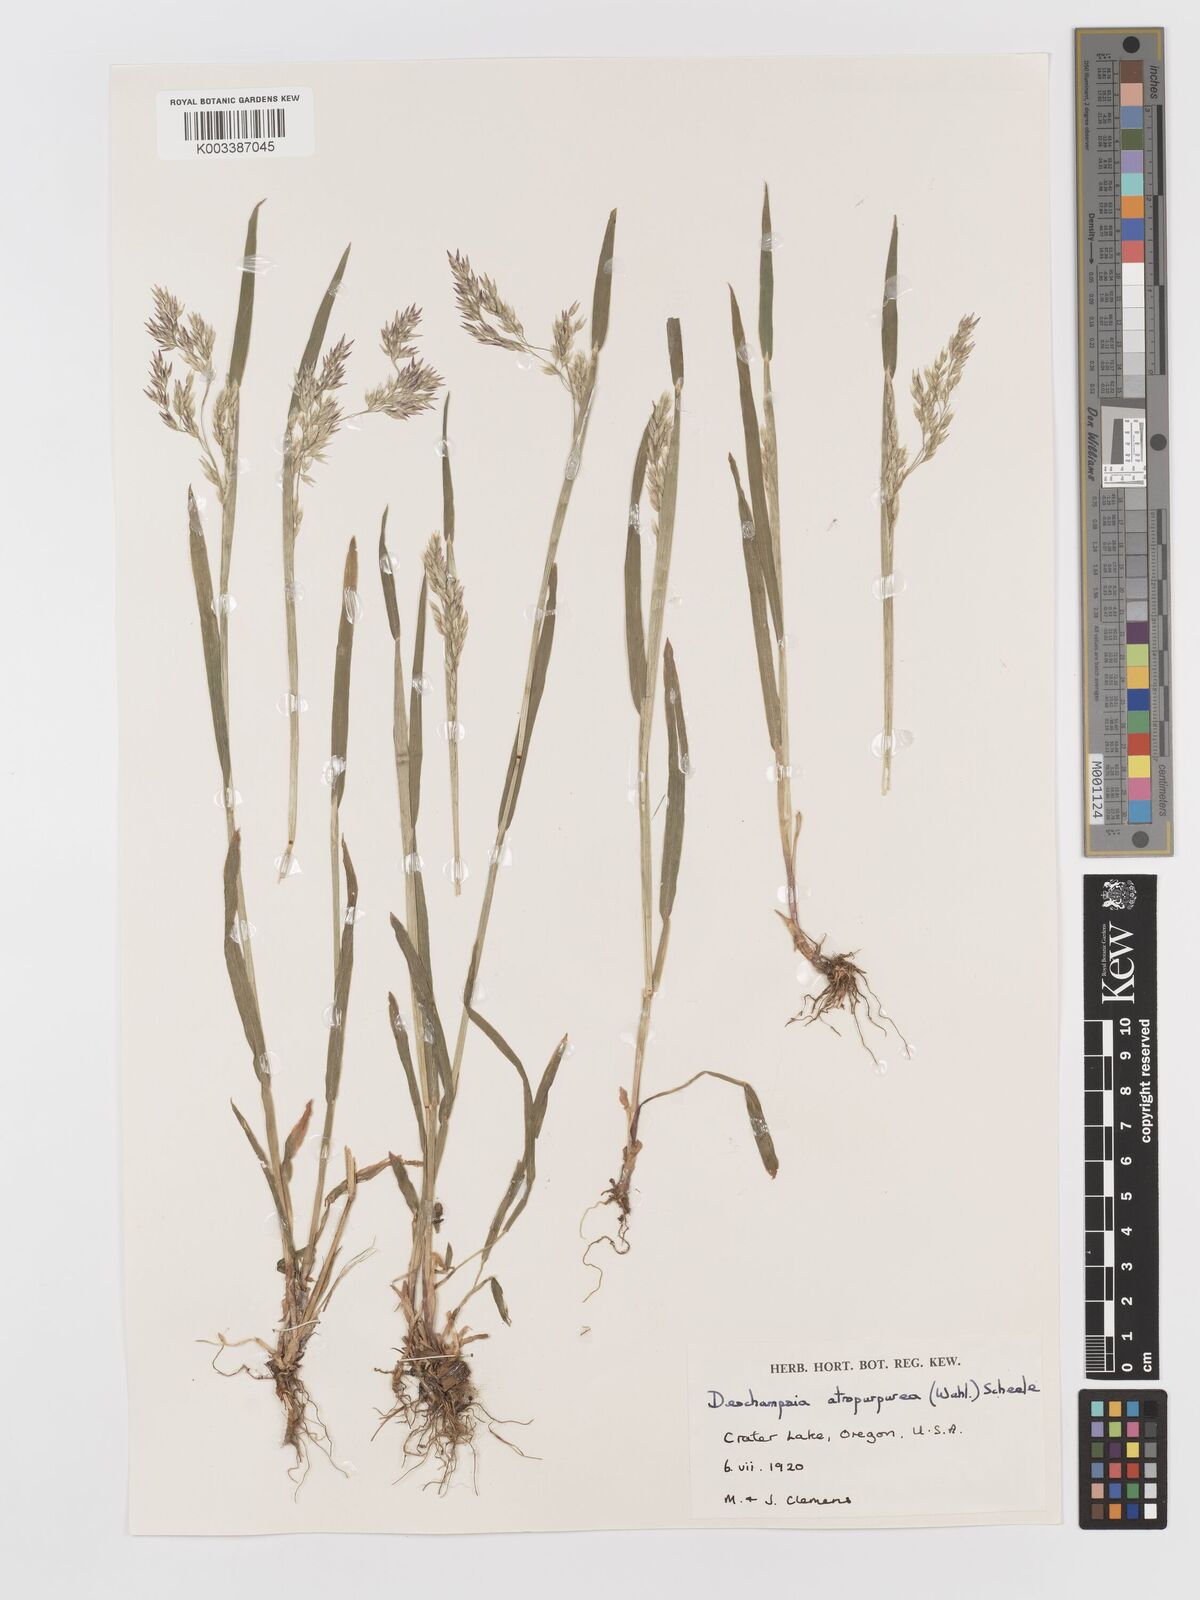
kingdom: Plantae
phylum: Tracheophyta
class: Liliopsida
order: Poales
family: Poaceae
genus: Vahlodea
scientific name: Vahlodea atropurpurea
